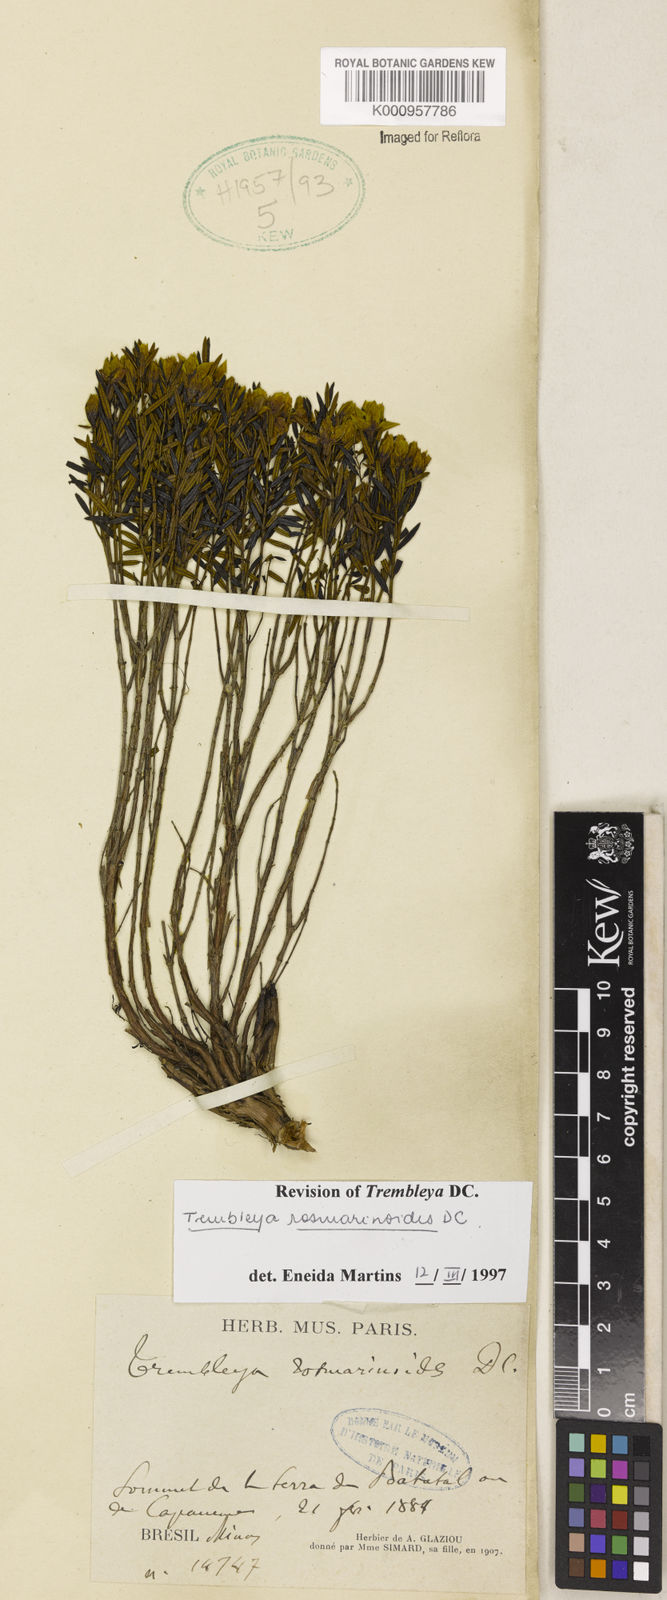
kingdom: Plantae
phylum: Tracheophyta
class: Magnoliopsida
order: Myrtales
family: Melastomataceae
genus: Microlicia
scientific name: Microlicia rosmarinoides
